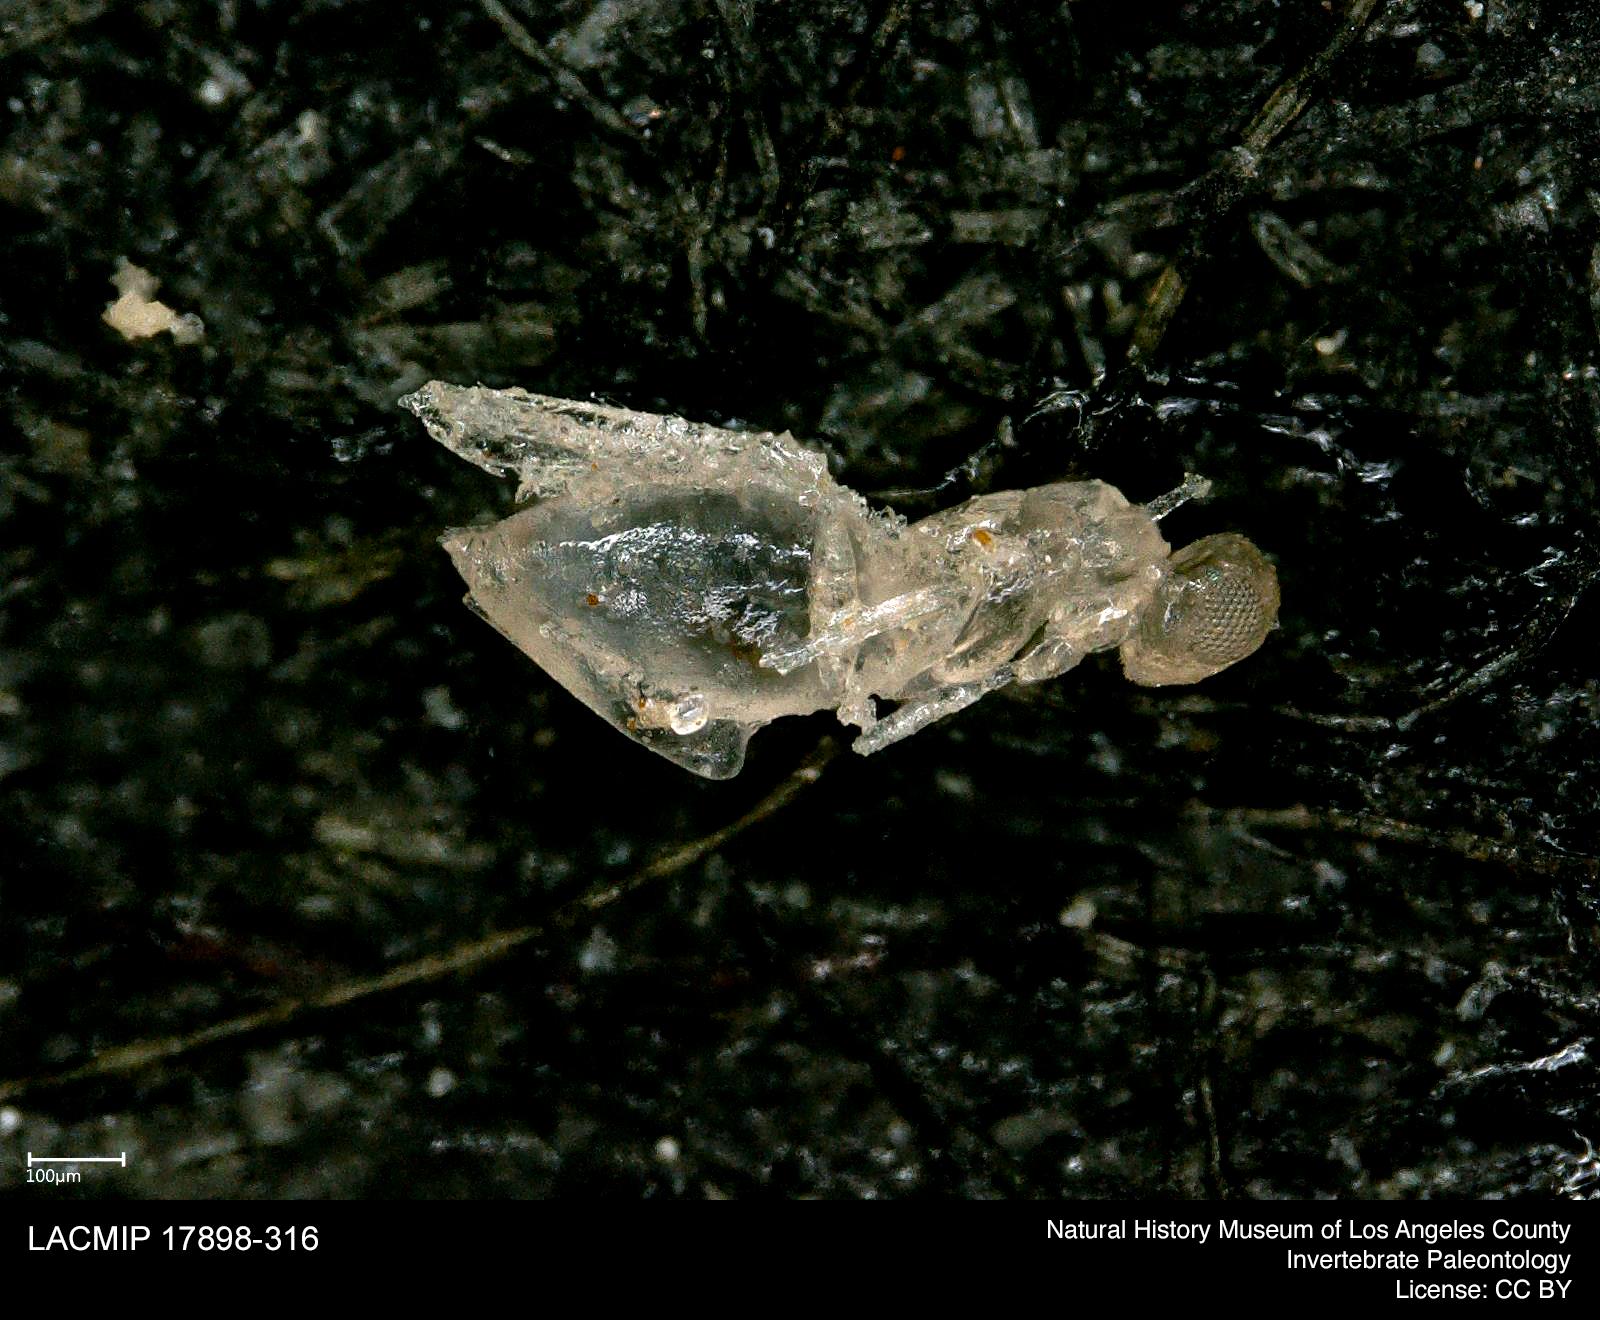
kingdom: Animalia
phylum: Arthropoda
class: Insecta
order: Hymenoptera
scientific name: Hymenoptera
